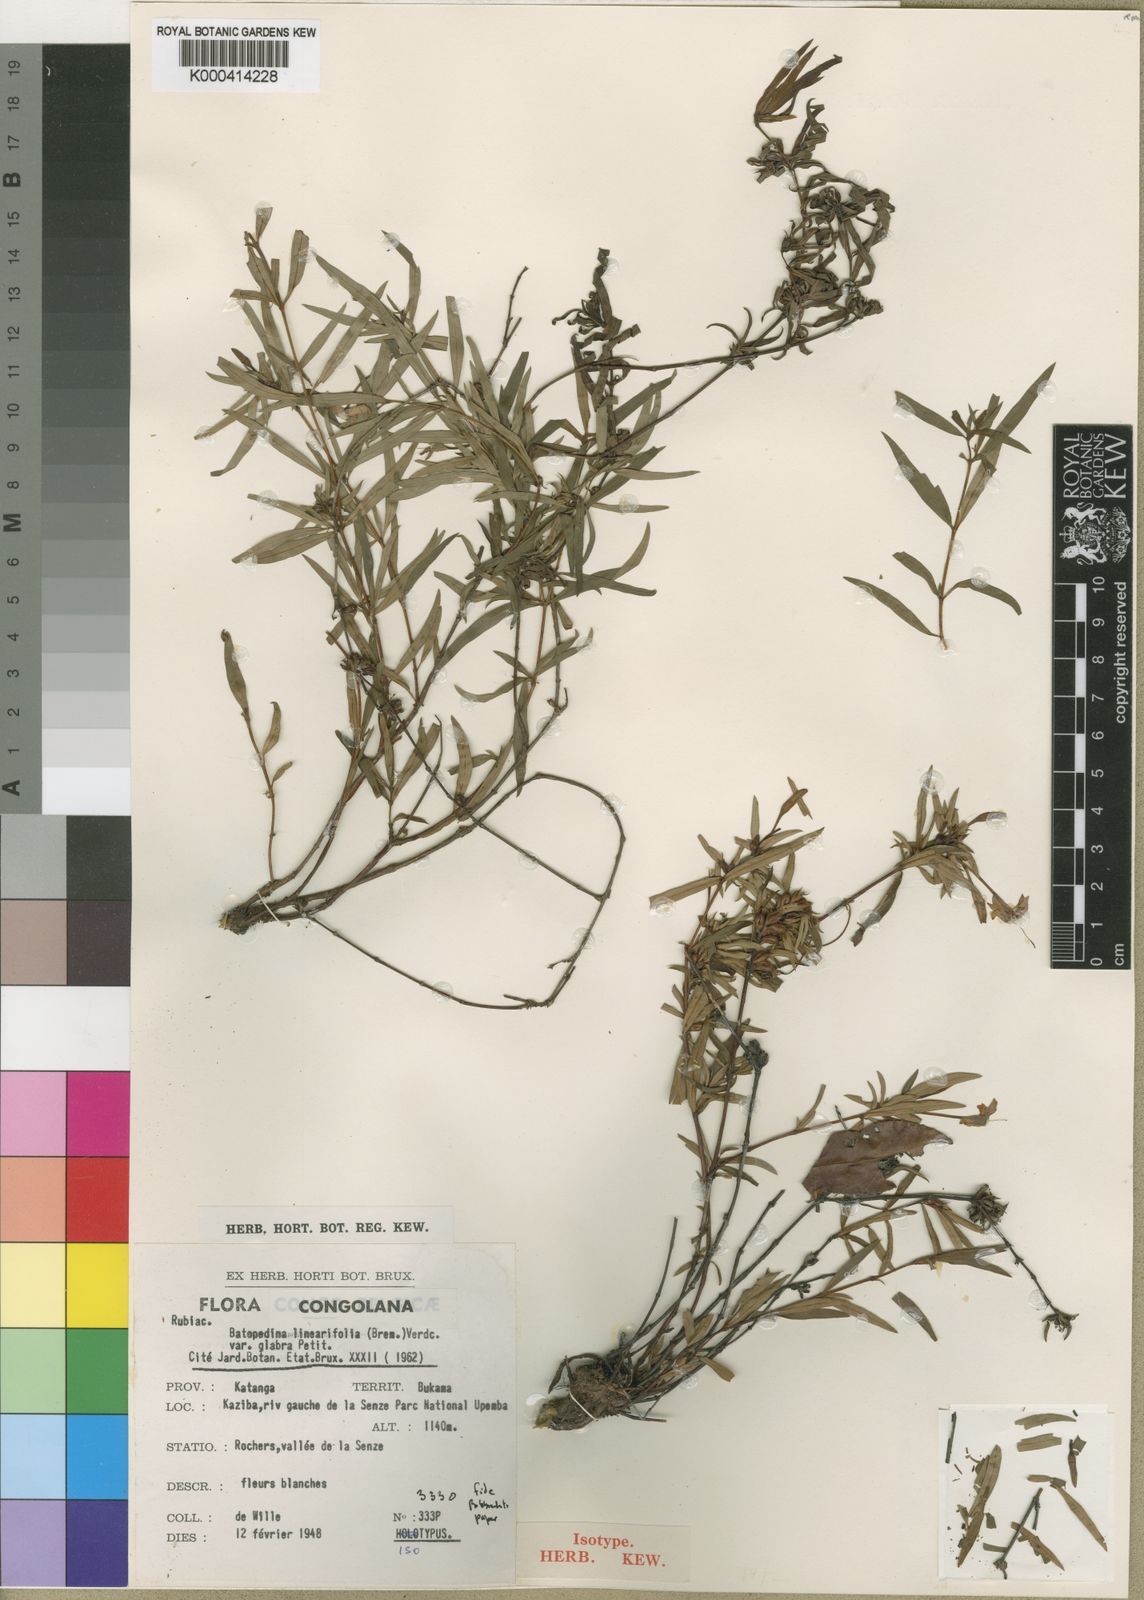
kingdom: Plantae
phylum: Tracheophyta
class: Magnoliopsida
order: Gentianales
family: Rubiaceae
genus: Batopedina
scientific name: Batopedina linearifolia
